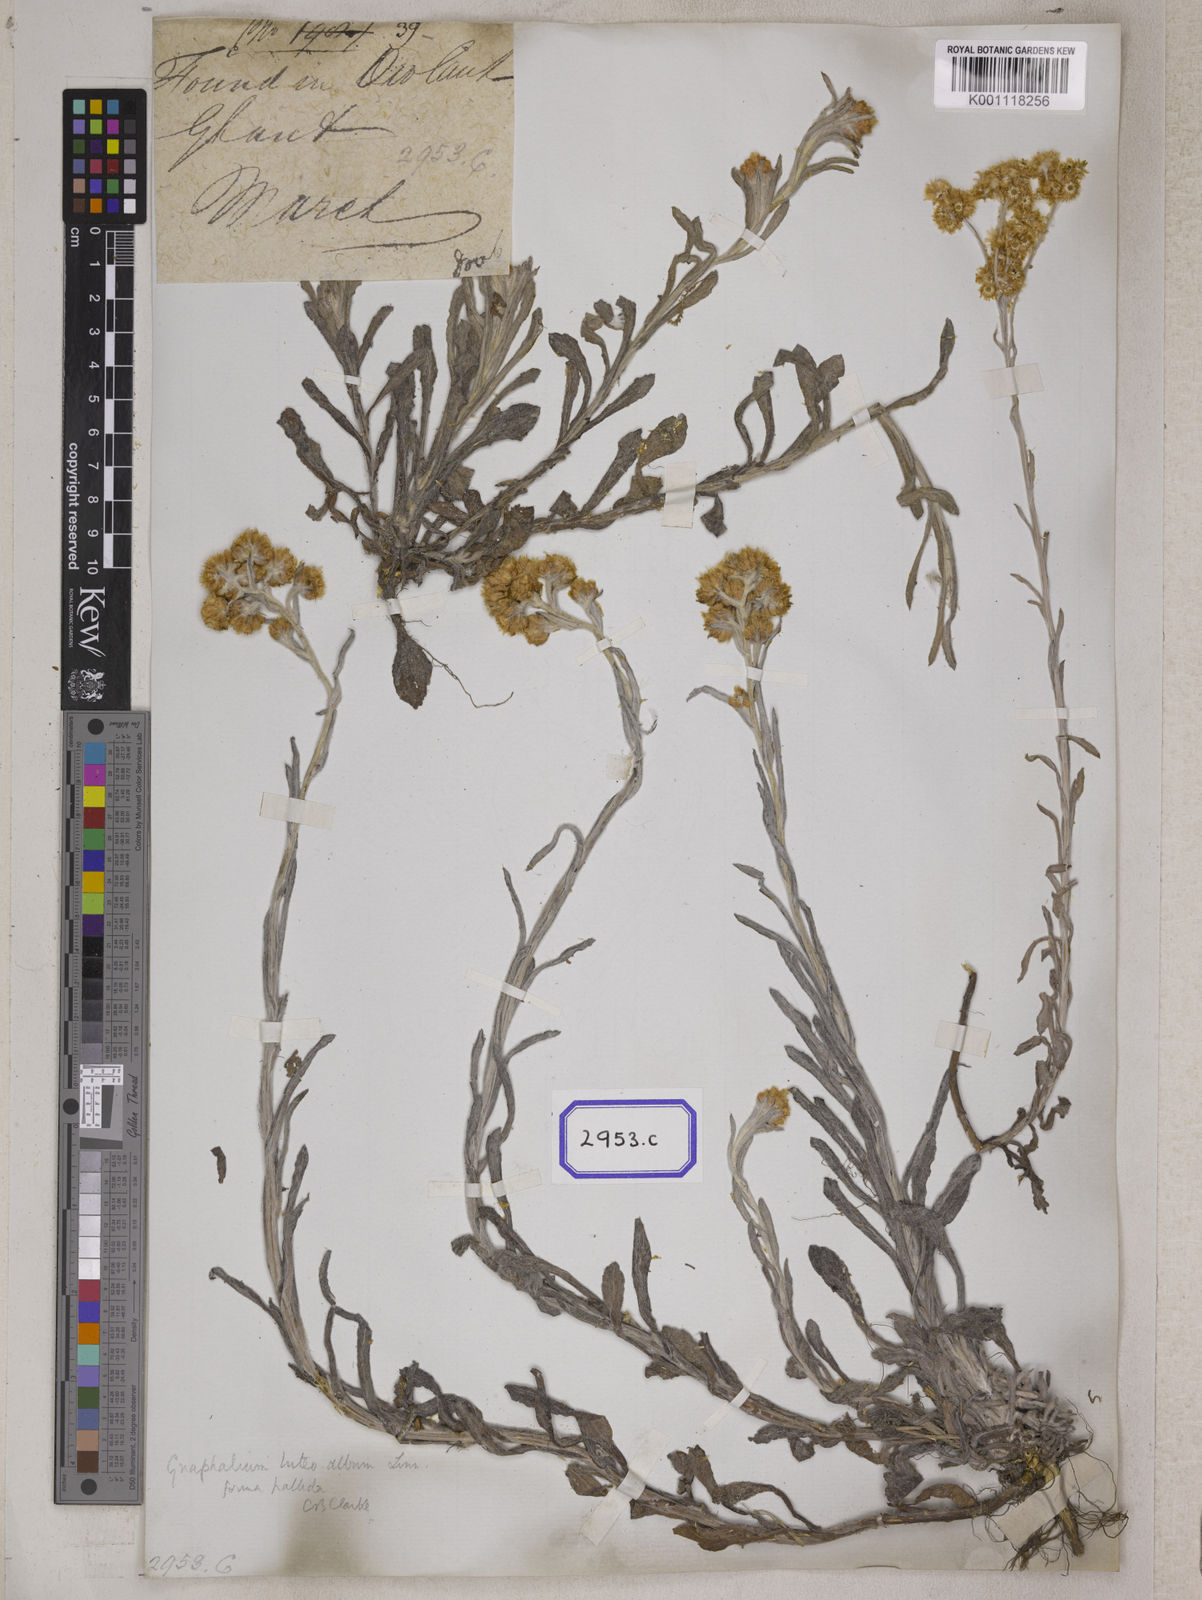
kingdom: Plantae
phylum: Tracheophyta
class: Magnoliopsida
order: Asterales
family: Asteraceae
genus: Helichrysum
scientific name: Helichrysum luteoalbum
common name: Daisy
